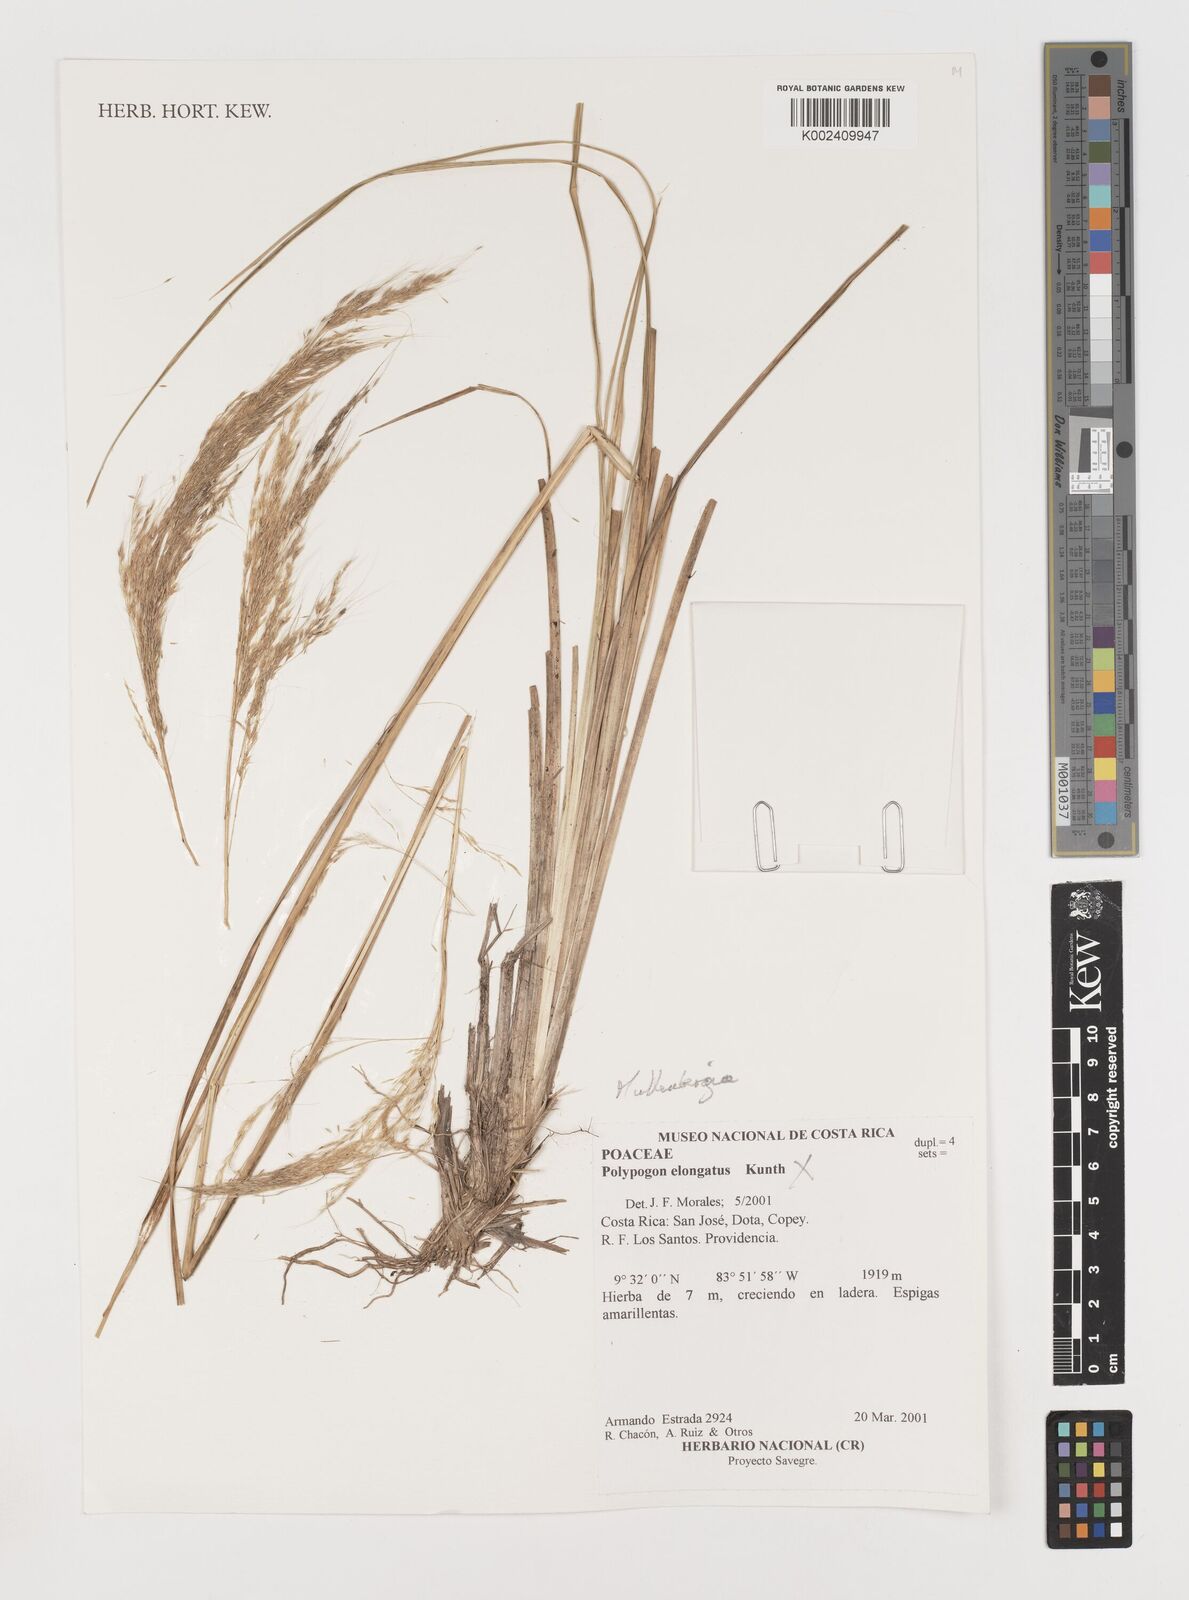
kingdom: Plantae
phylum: Tracheophyta
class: Liliopsida
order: Poales
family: Poaceae
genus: Muhlenbergia
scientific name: Muhlenbergia lehmanniana
